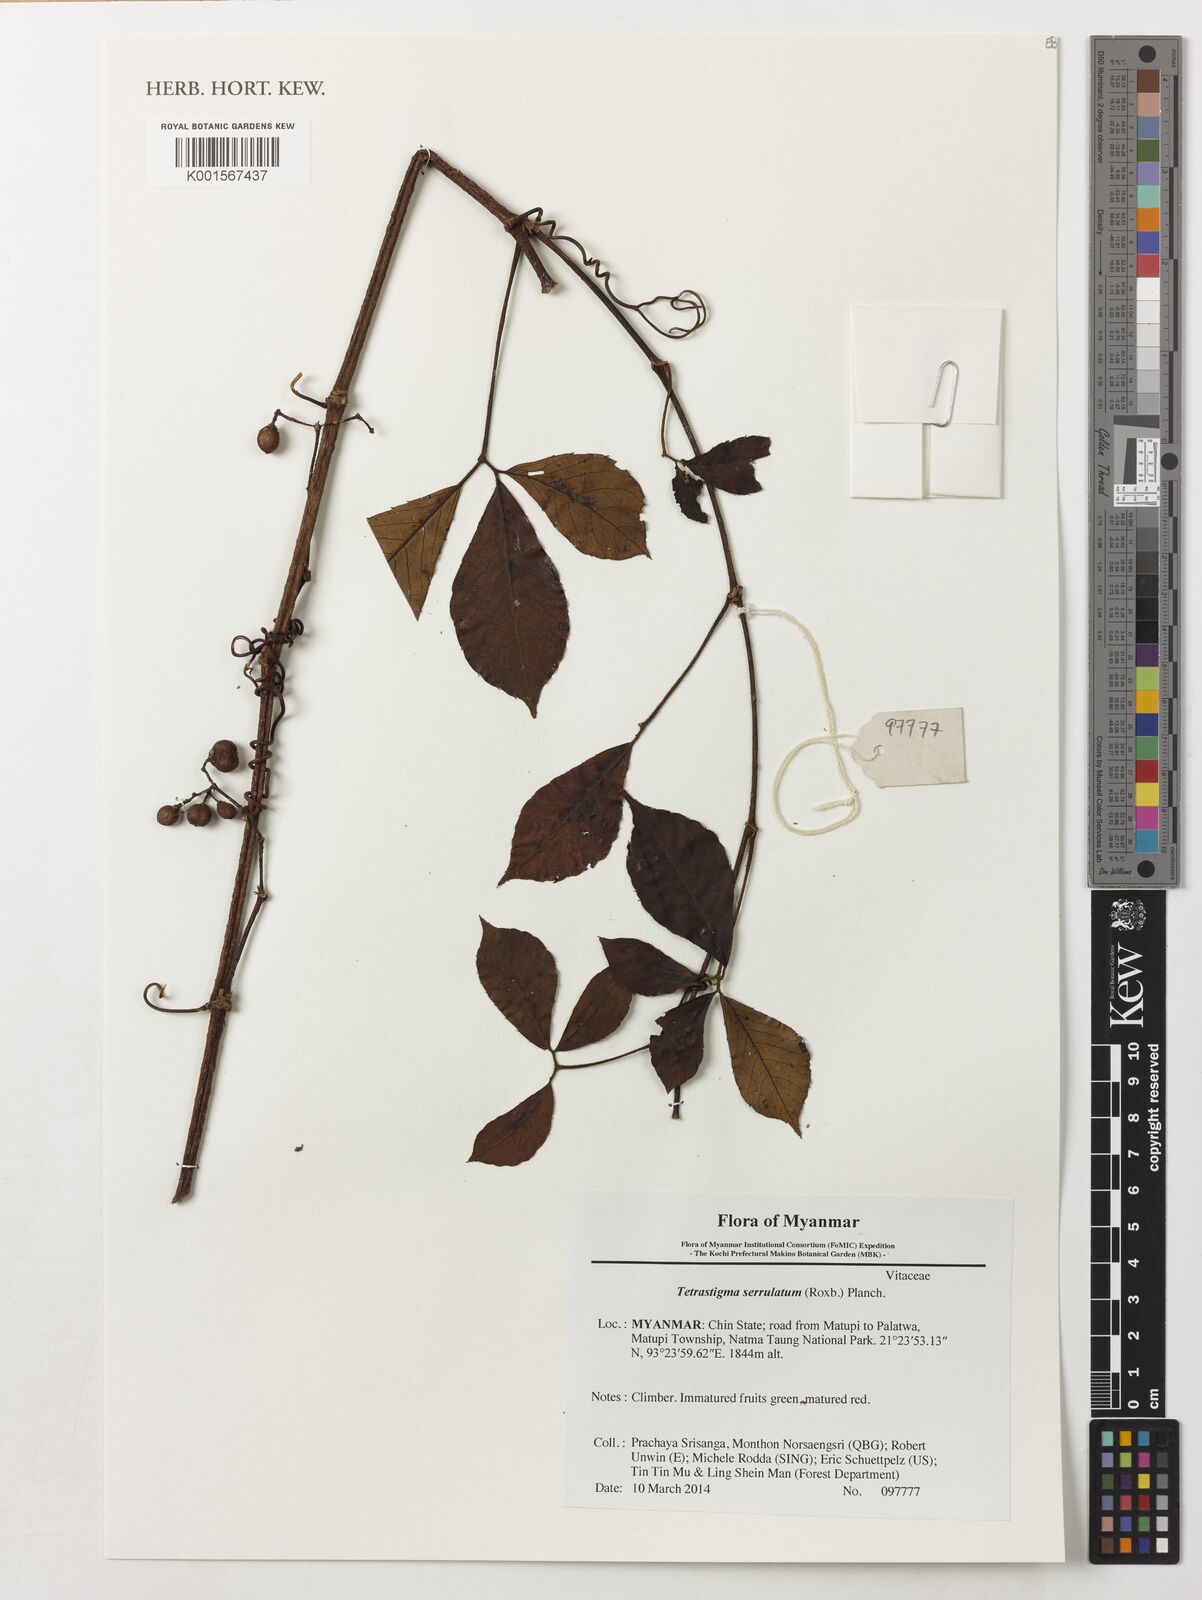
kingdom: Plantae
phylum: Tracheophyta
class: Magnoliopsida
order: Vitales
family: Vitaceae
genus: Tetrastigma
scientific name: Tetrastigma serrulatum
